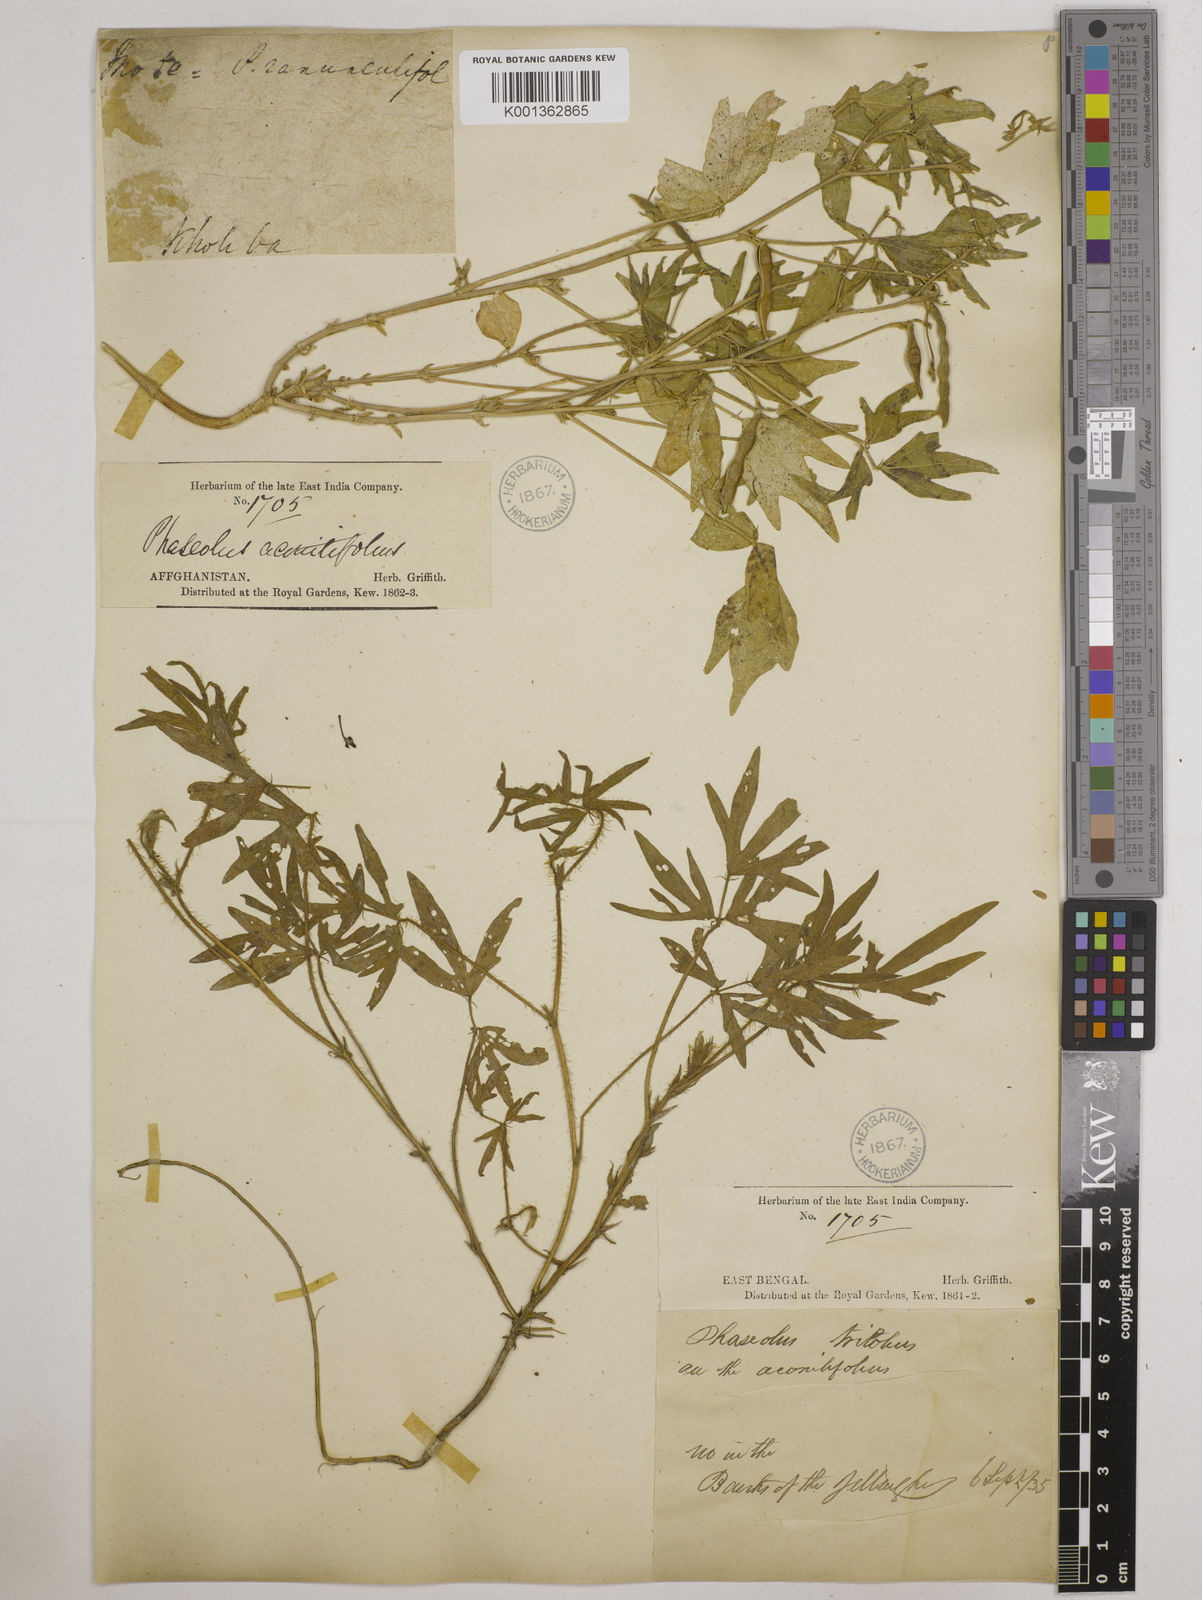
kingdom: Plantae
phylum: Tracheophyta
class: Magnoliopsida
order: Fabales
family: Fabaceae
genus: Vigna
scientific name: Vigna aconitifolia
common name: Dew bean
